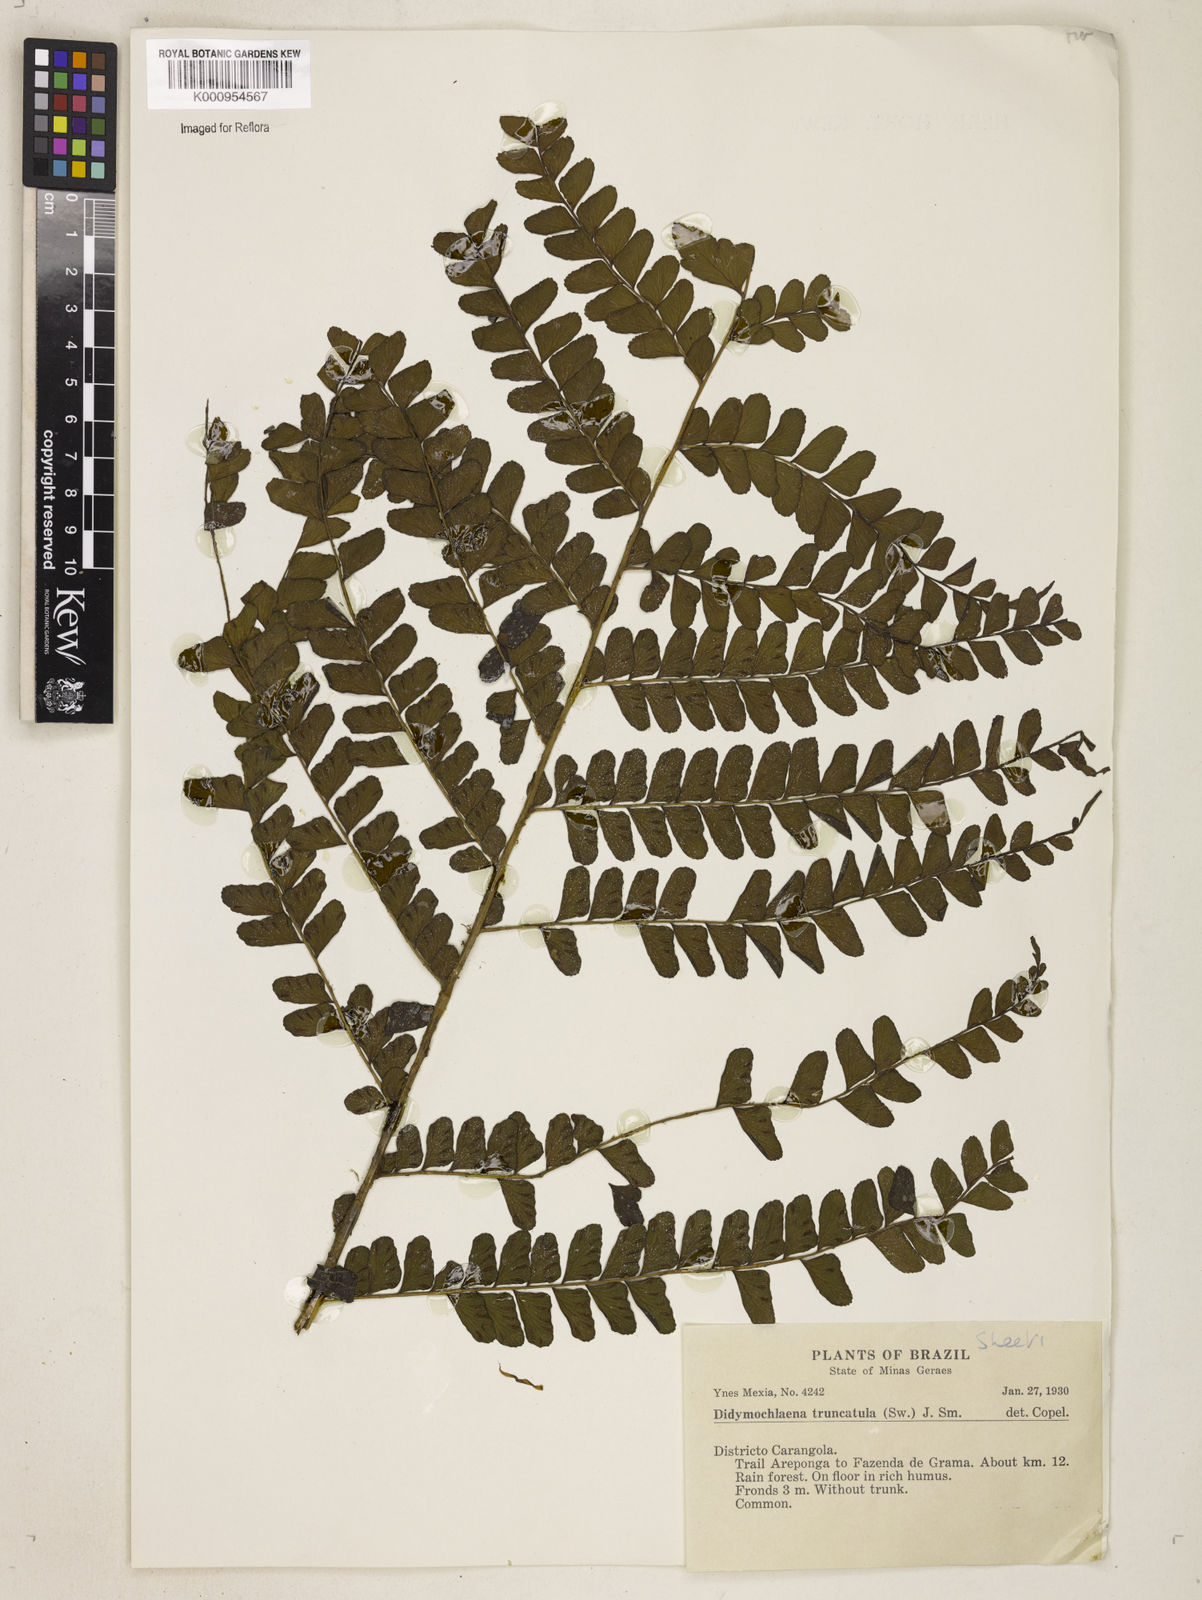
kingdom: Plantae
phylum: Tracheophyta
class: Polypodiopsida
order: Polypodiales
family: Didymochlaenaceae
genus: Didymochlaena
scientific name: Didymochlaena truncatula
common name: Mahogany fern
